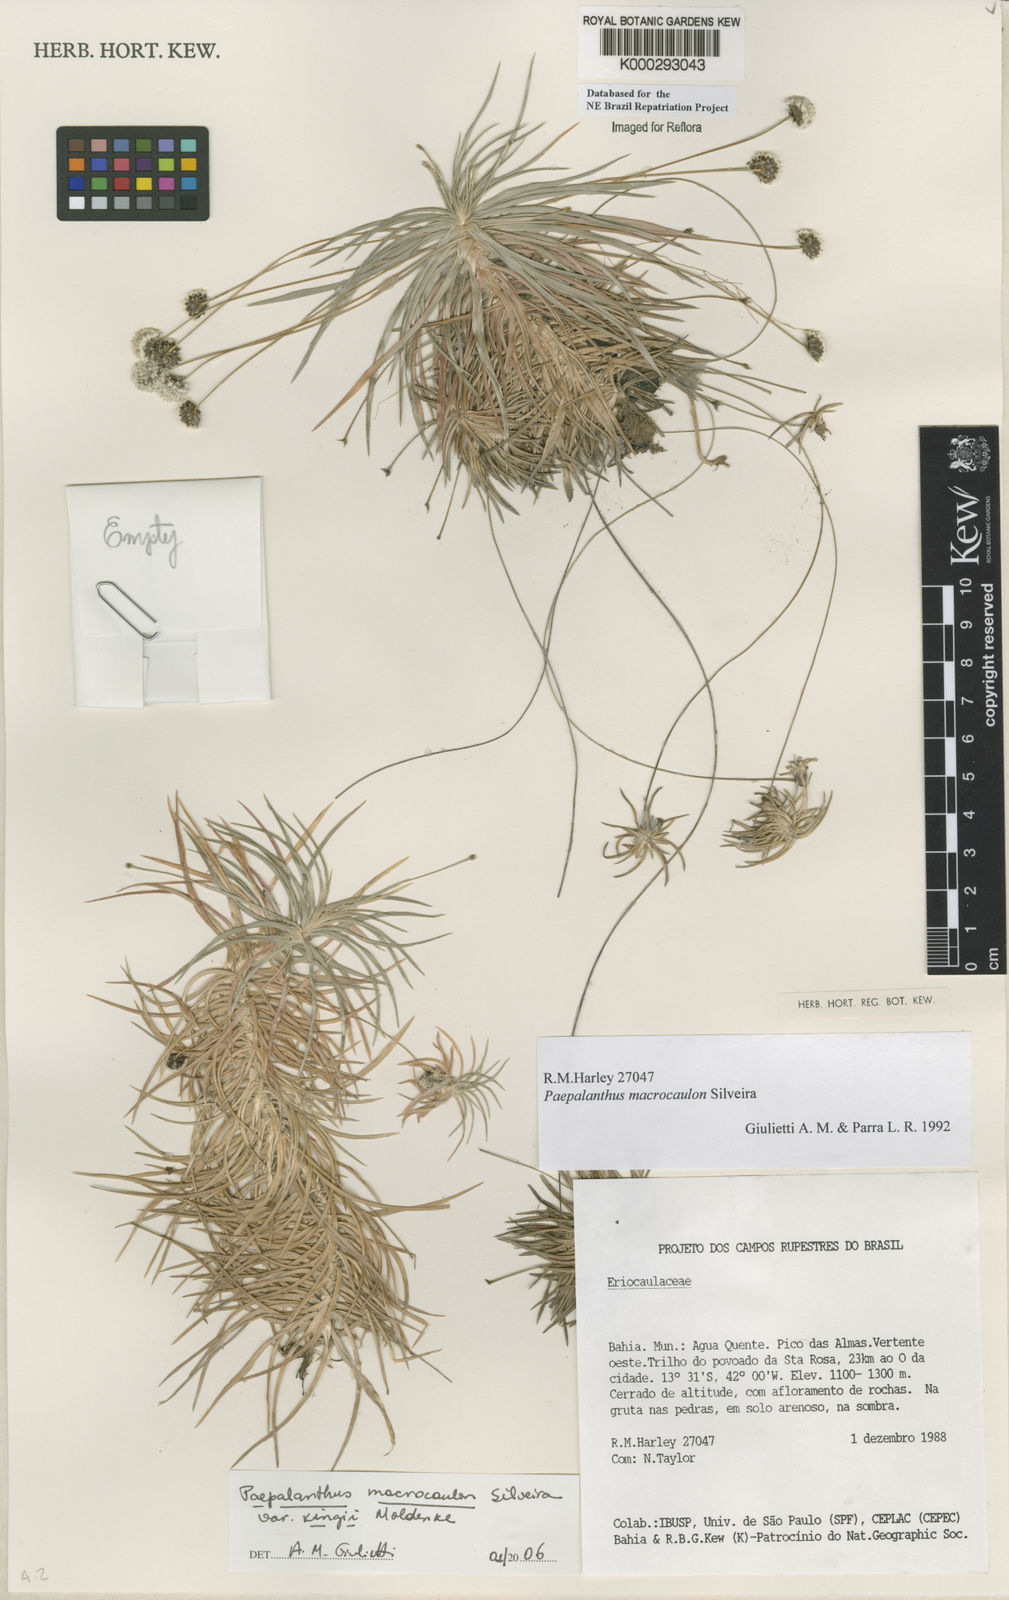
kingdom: Plantae
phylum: Tracheophyta
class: Liliopsida
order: Poales
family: Eriocaulaceae
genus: Paepalanthus
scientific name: Paepalanthus macrocaulon
